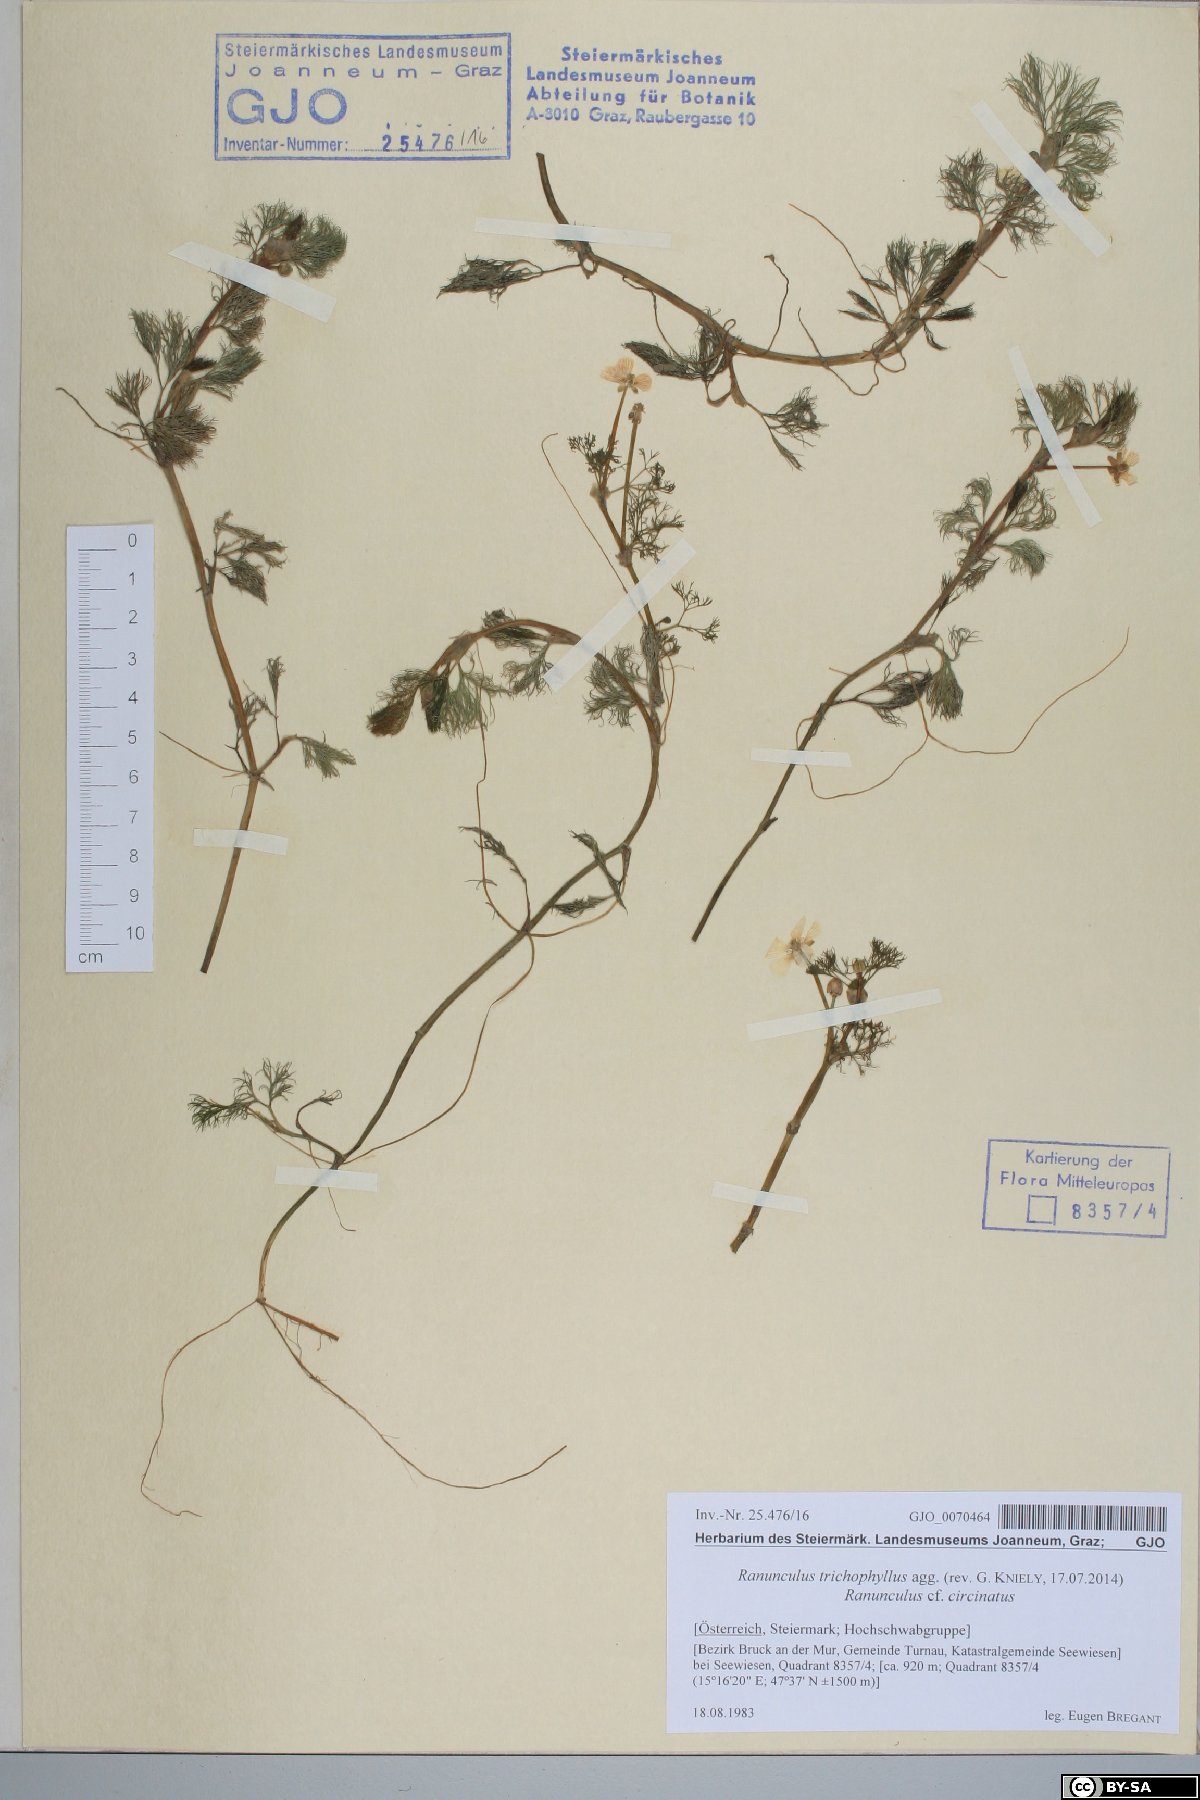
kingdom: Plantae
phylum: Tracheophyta
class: Magnoliopsida
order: Ranunculales
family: Ranunculaceae
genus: Ranunculus
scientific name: Ranunculus trichophyllus
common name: Thread-leaved water-crowfoot
